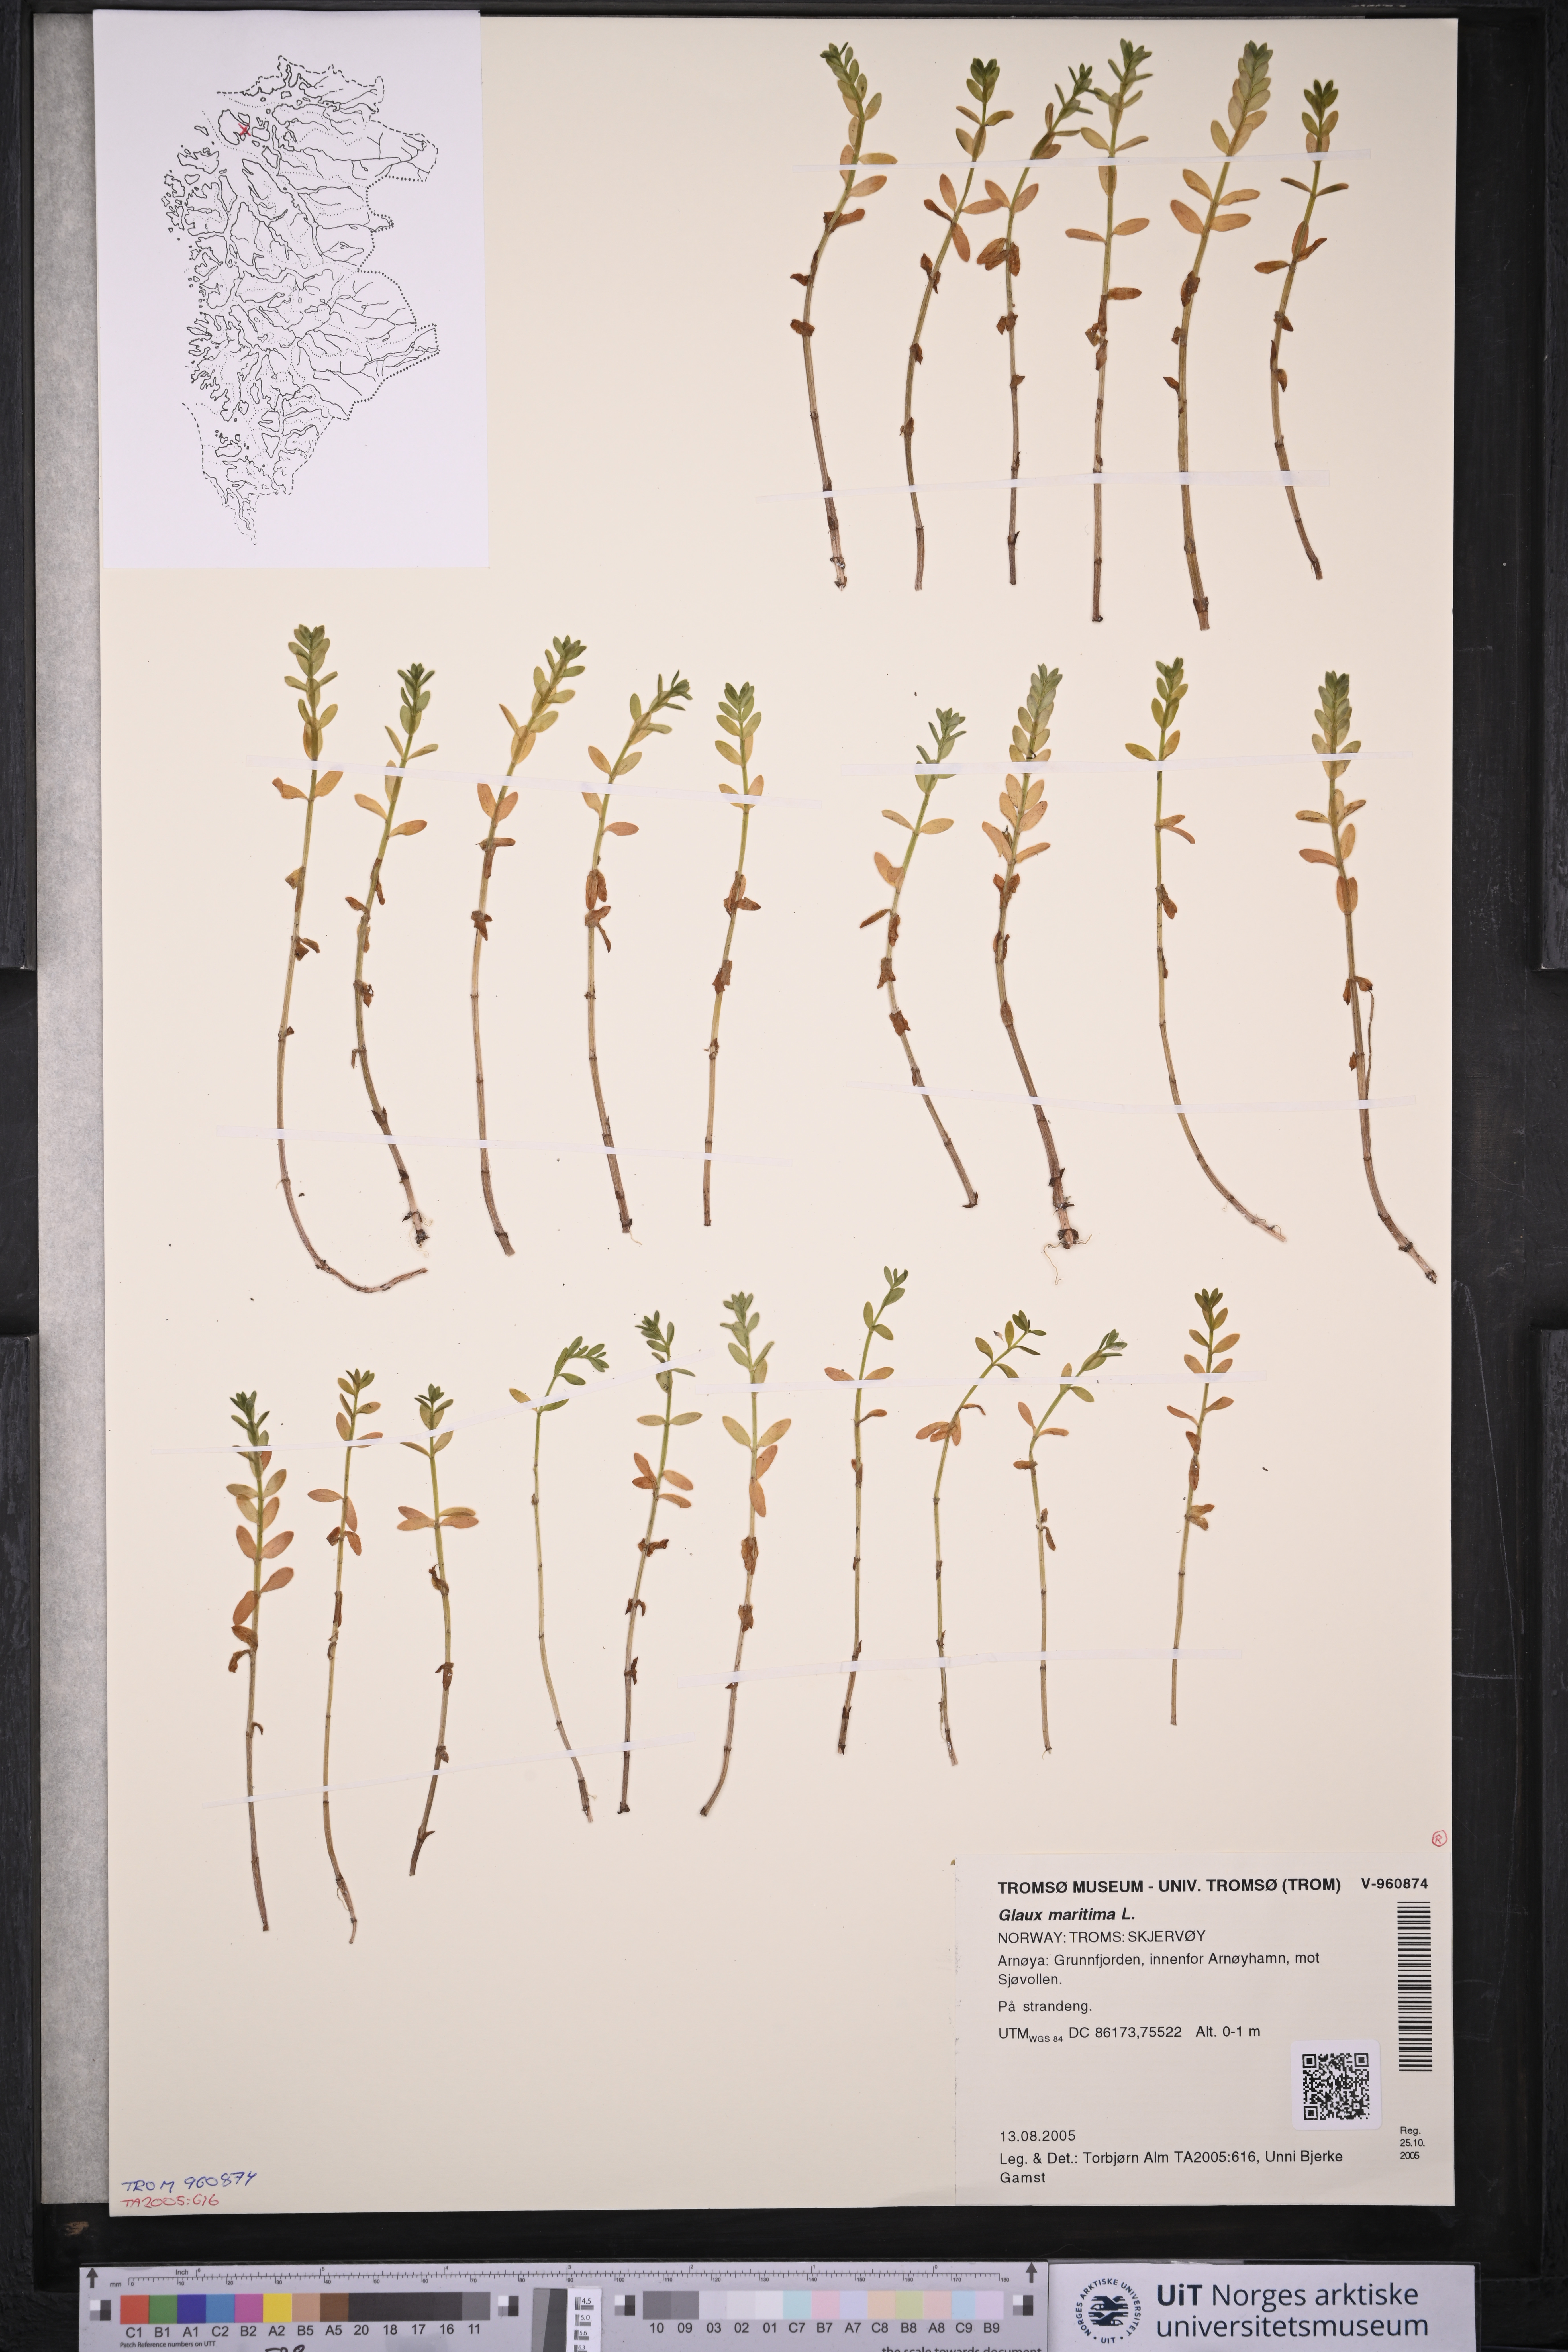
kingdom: Plantae
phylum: Tracheophyta
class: Magnoliopsida
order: Ericales
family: Primulaceae
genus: Lysimachia
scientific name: Lysimachia maritima
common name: Sea milkwort
